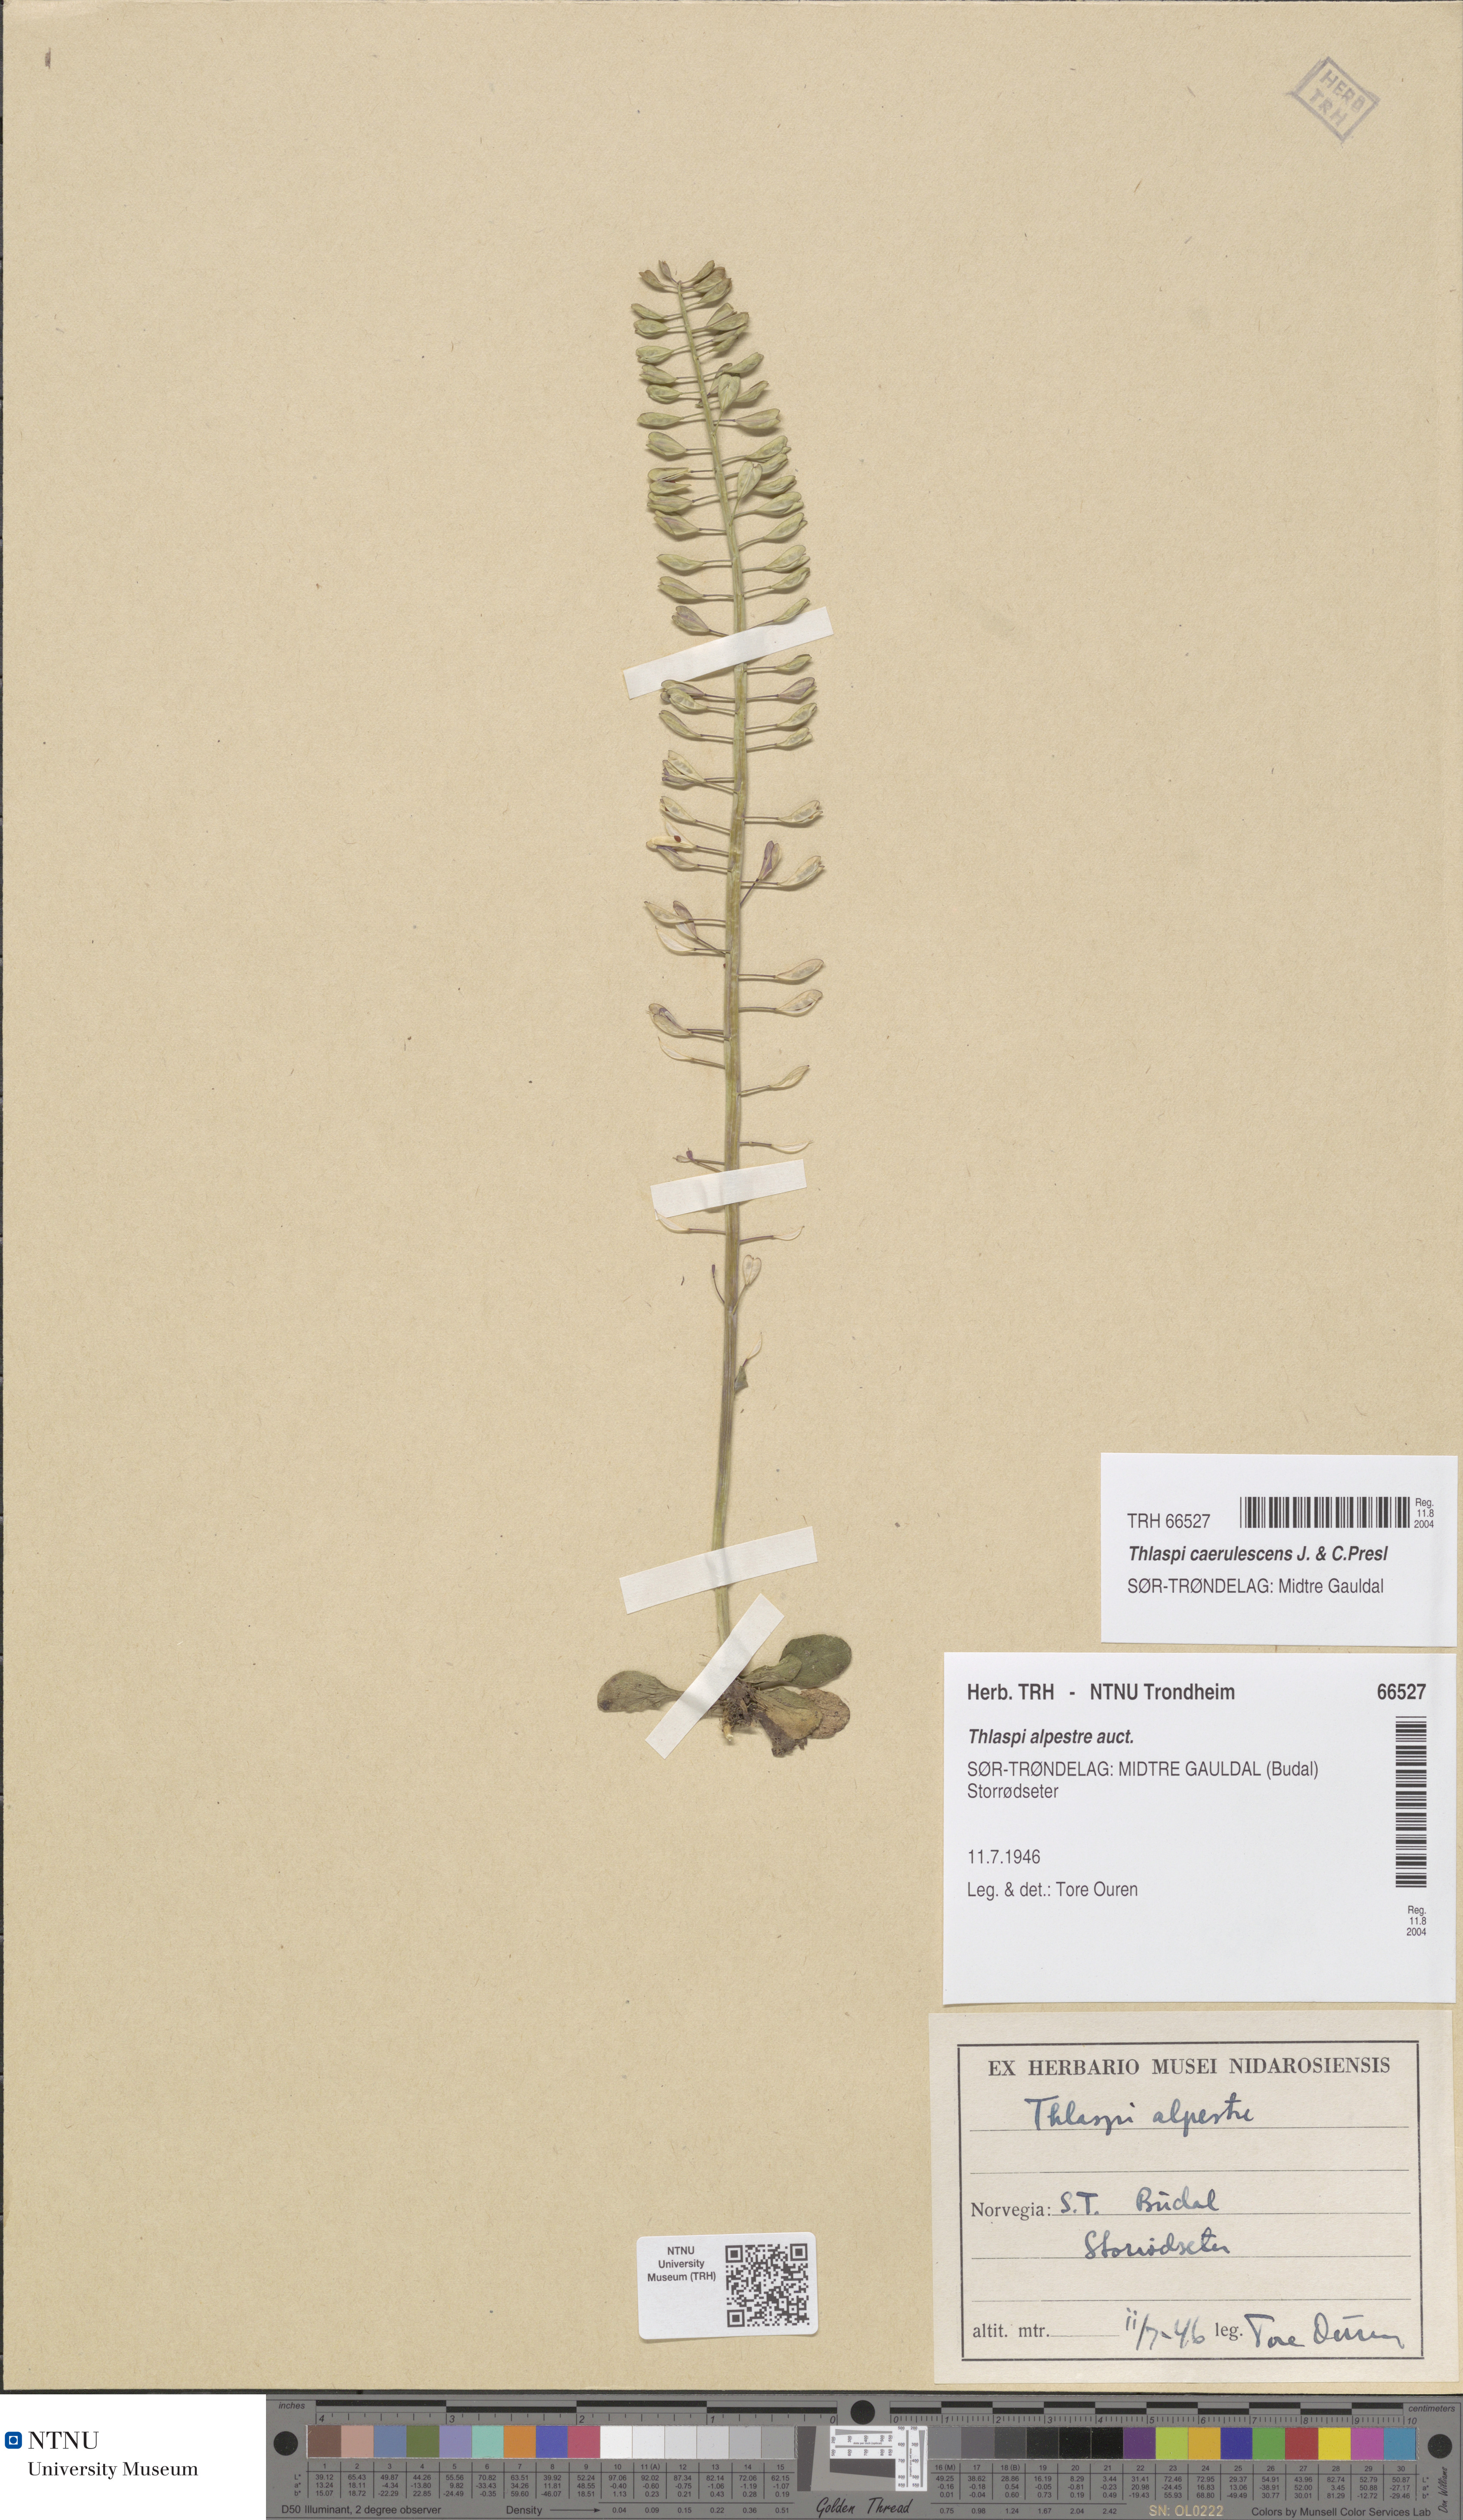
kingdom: Plantae
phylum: Tracheophyta
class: Magnoliopsida
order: Brassicales
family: Brassicaceae
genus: Noccaea
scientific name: Noccaea caerulescens
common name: Alpine pennycress
